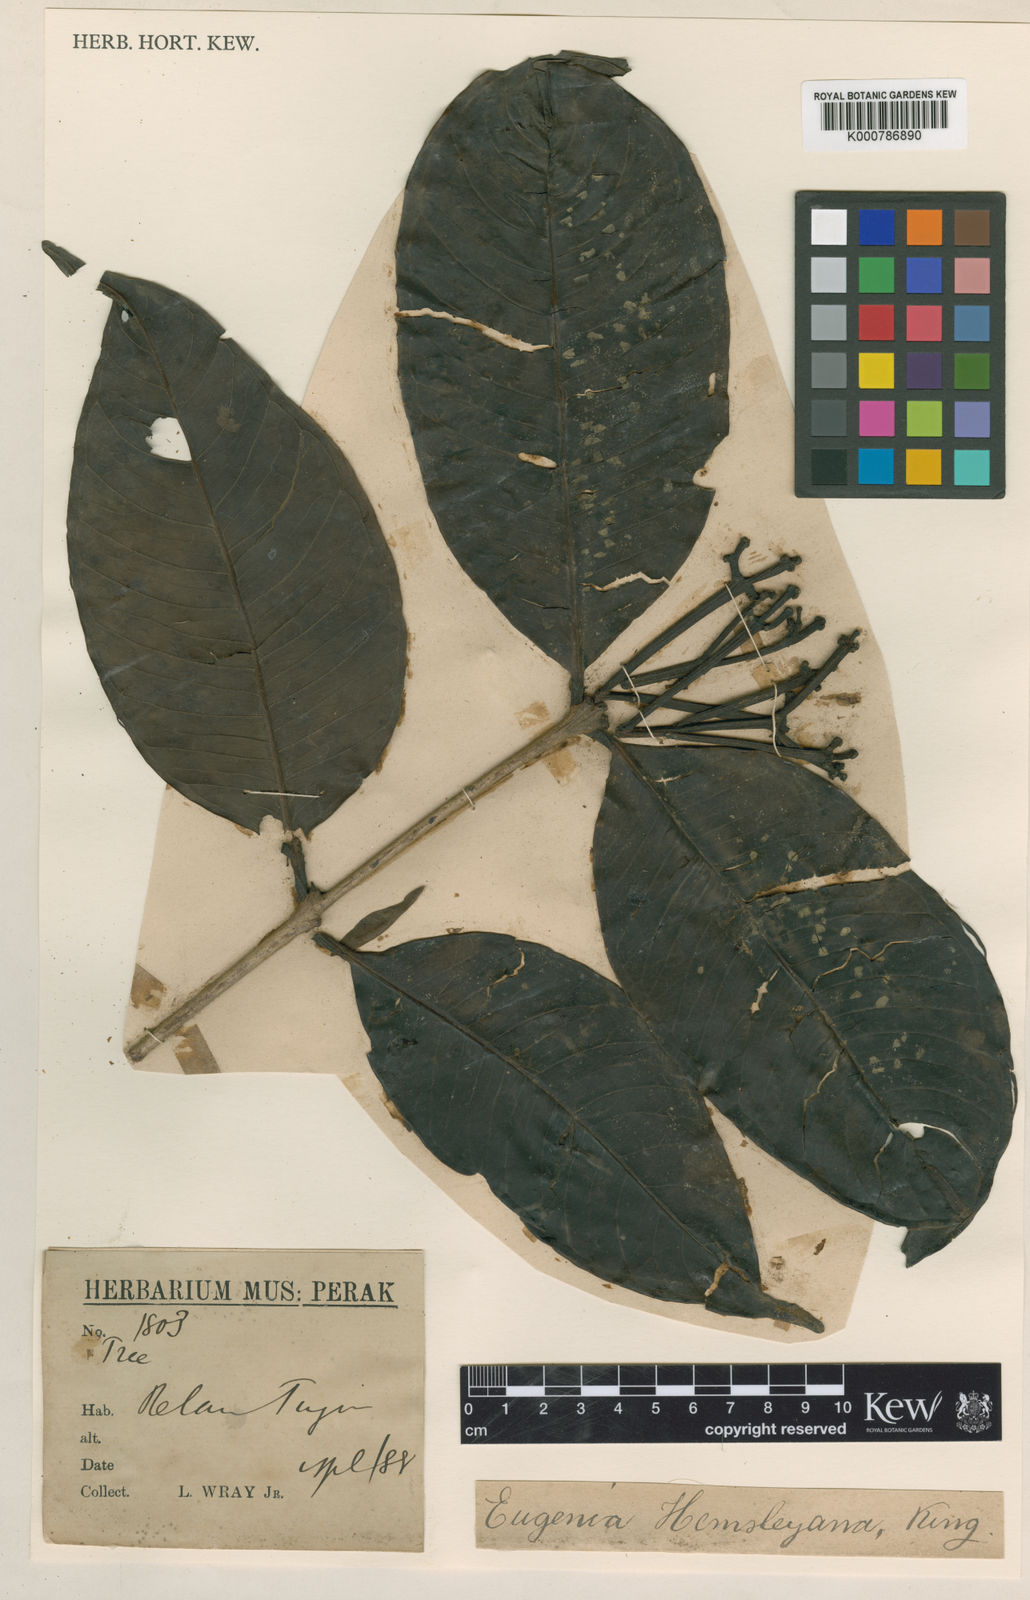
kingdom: Plantae
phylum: Tracheophyta
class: Magnoliopsida
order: Myrtales
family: Myrtaceae
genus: Syzygium
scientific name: Syzygium hemsleyanum
